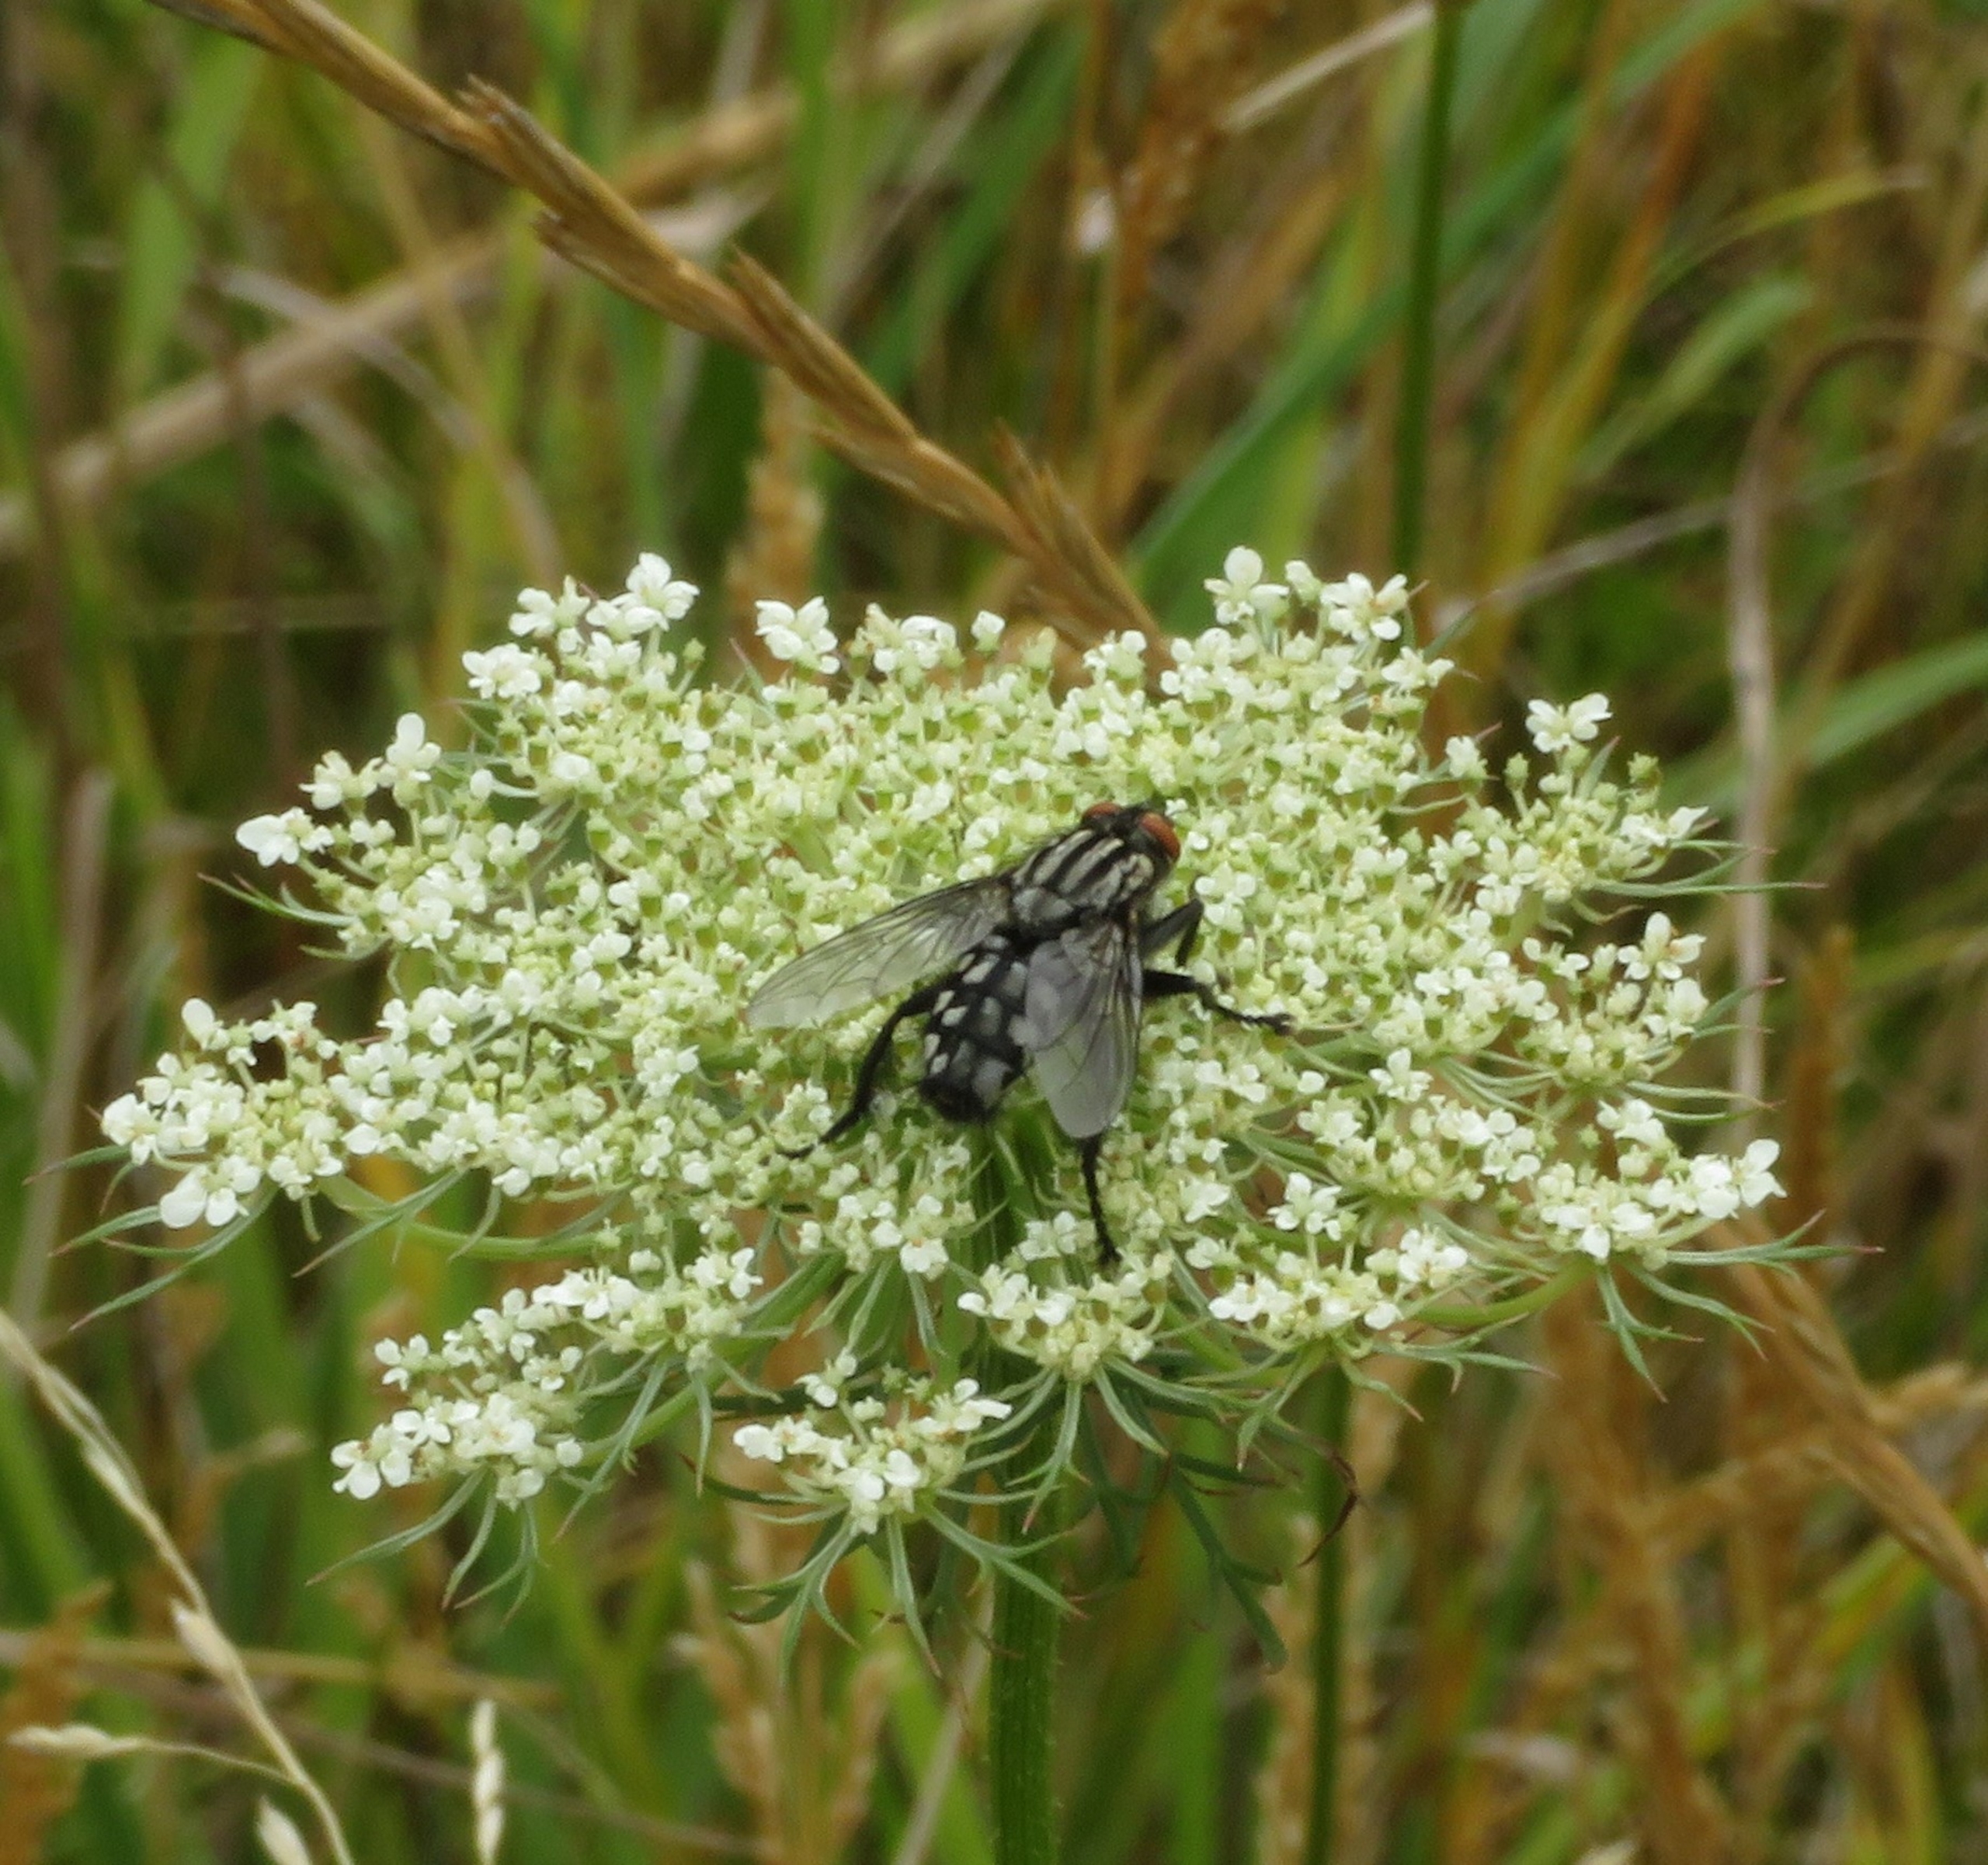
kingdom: Animalia
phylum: Arthropoda
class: Insecta
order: Diptera
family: Sarcophagidae
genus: Sarcophaga
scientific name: Sarcophaga
